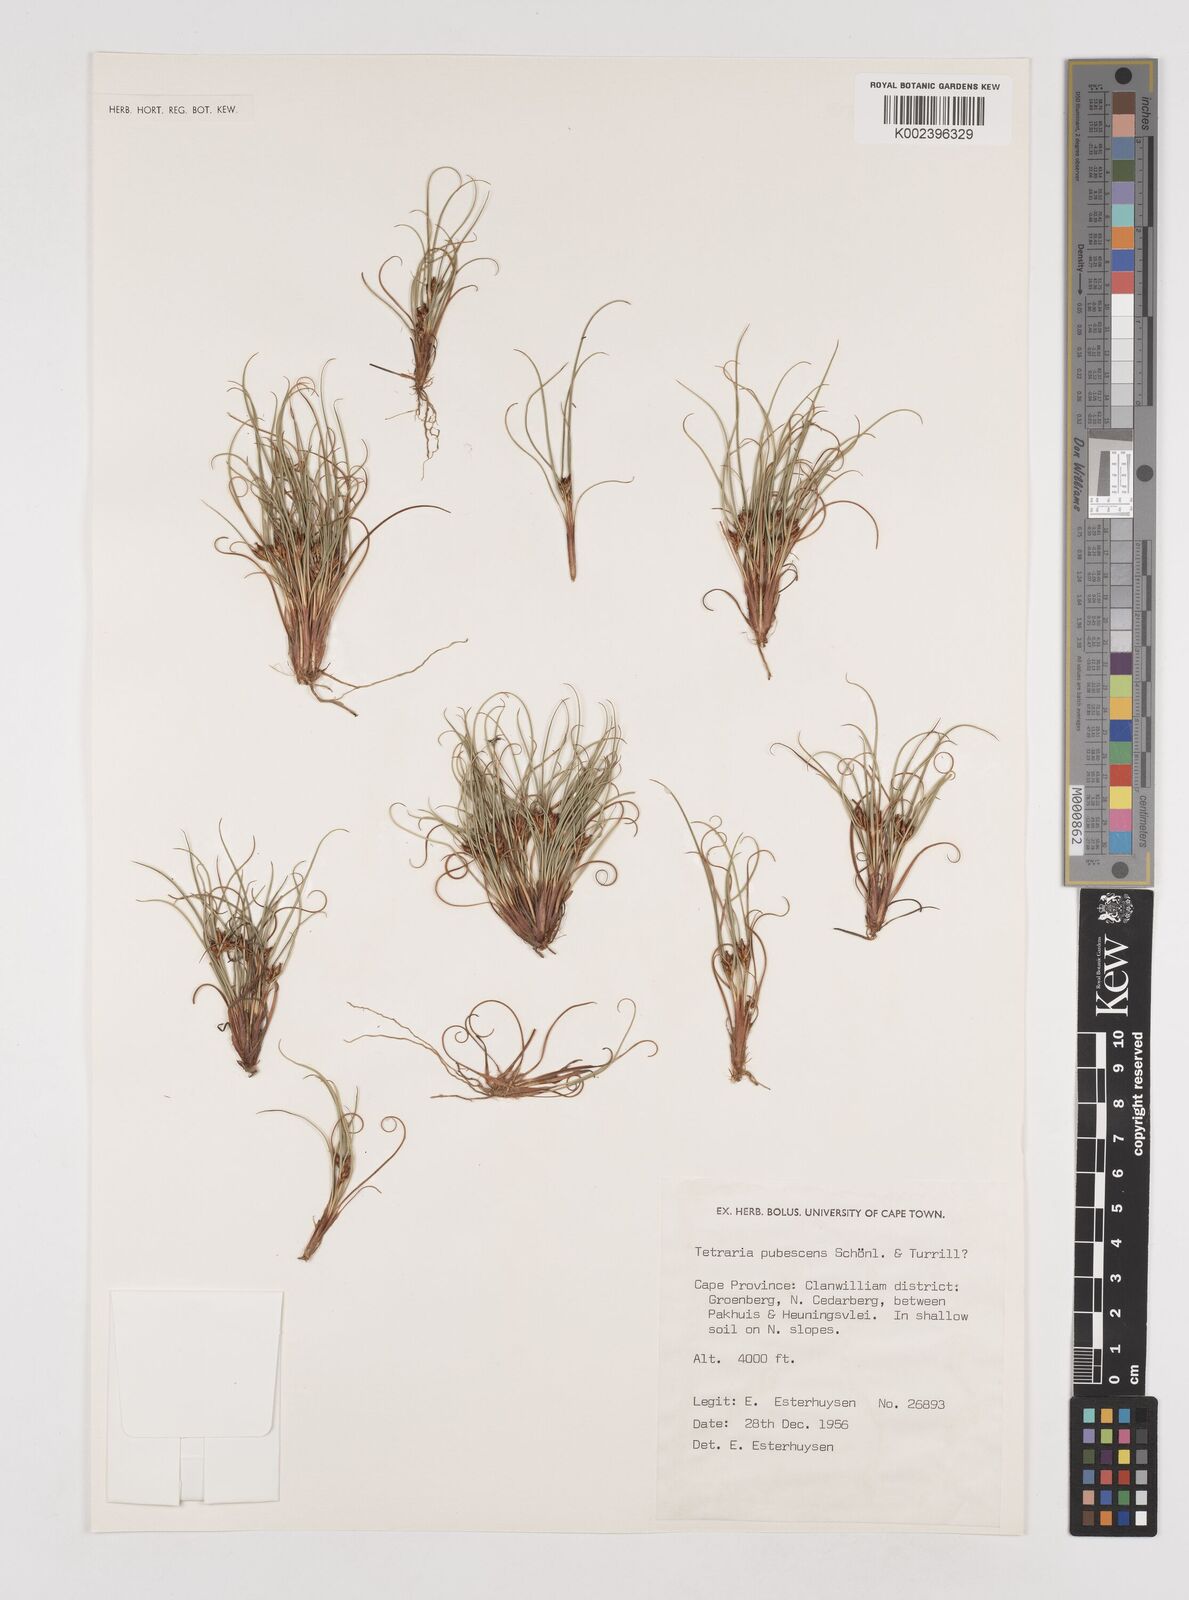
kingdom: Plantae
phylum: Tracheophyta
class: Liliopsida
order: Poales
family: Cyperaceae
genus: Tetraria
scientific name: Tetraria pubescens
